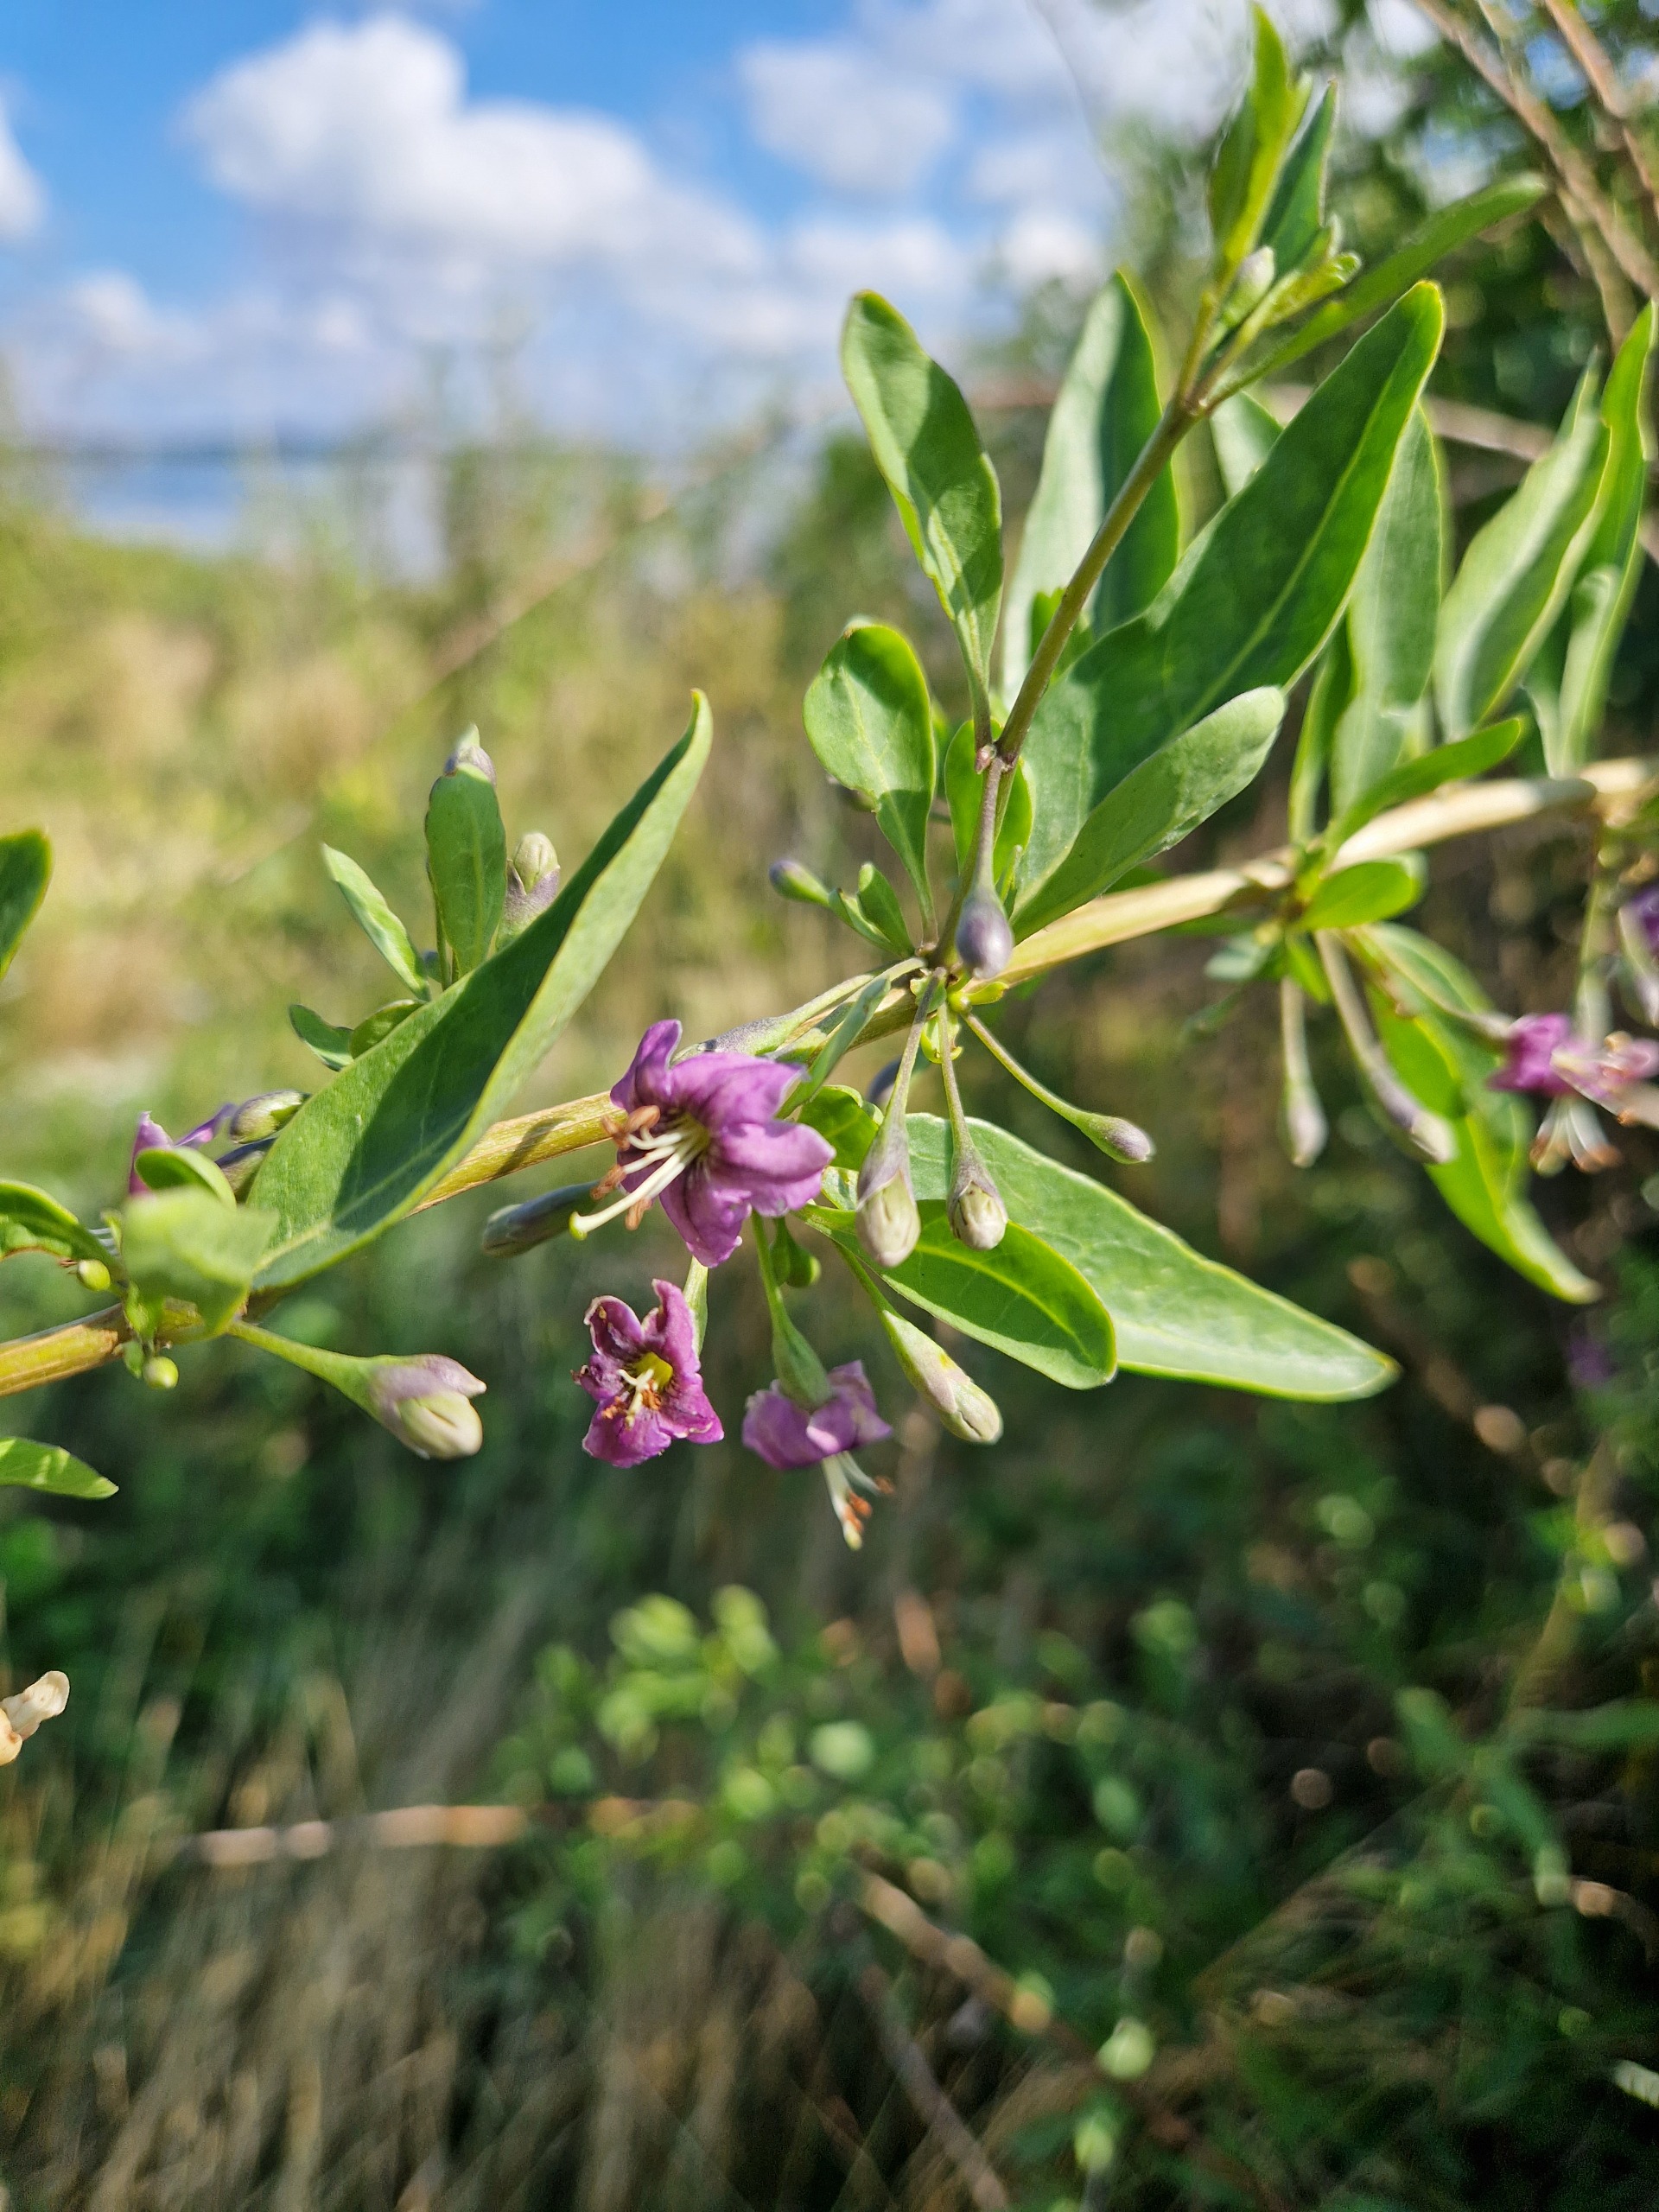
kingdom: Plantae
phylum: Tracheophyta
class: Magnoliopsida
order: Solanales
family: Solanaceae
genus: Lycium
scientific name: Lycium barbarum
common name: Bukketorn
